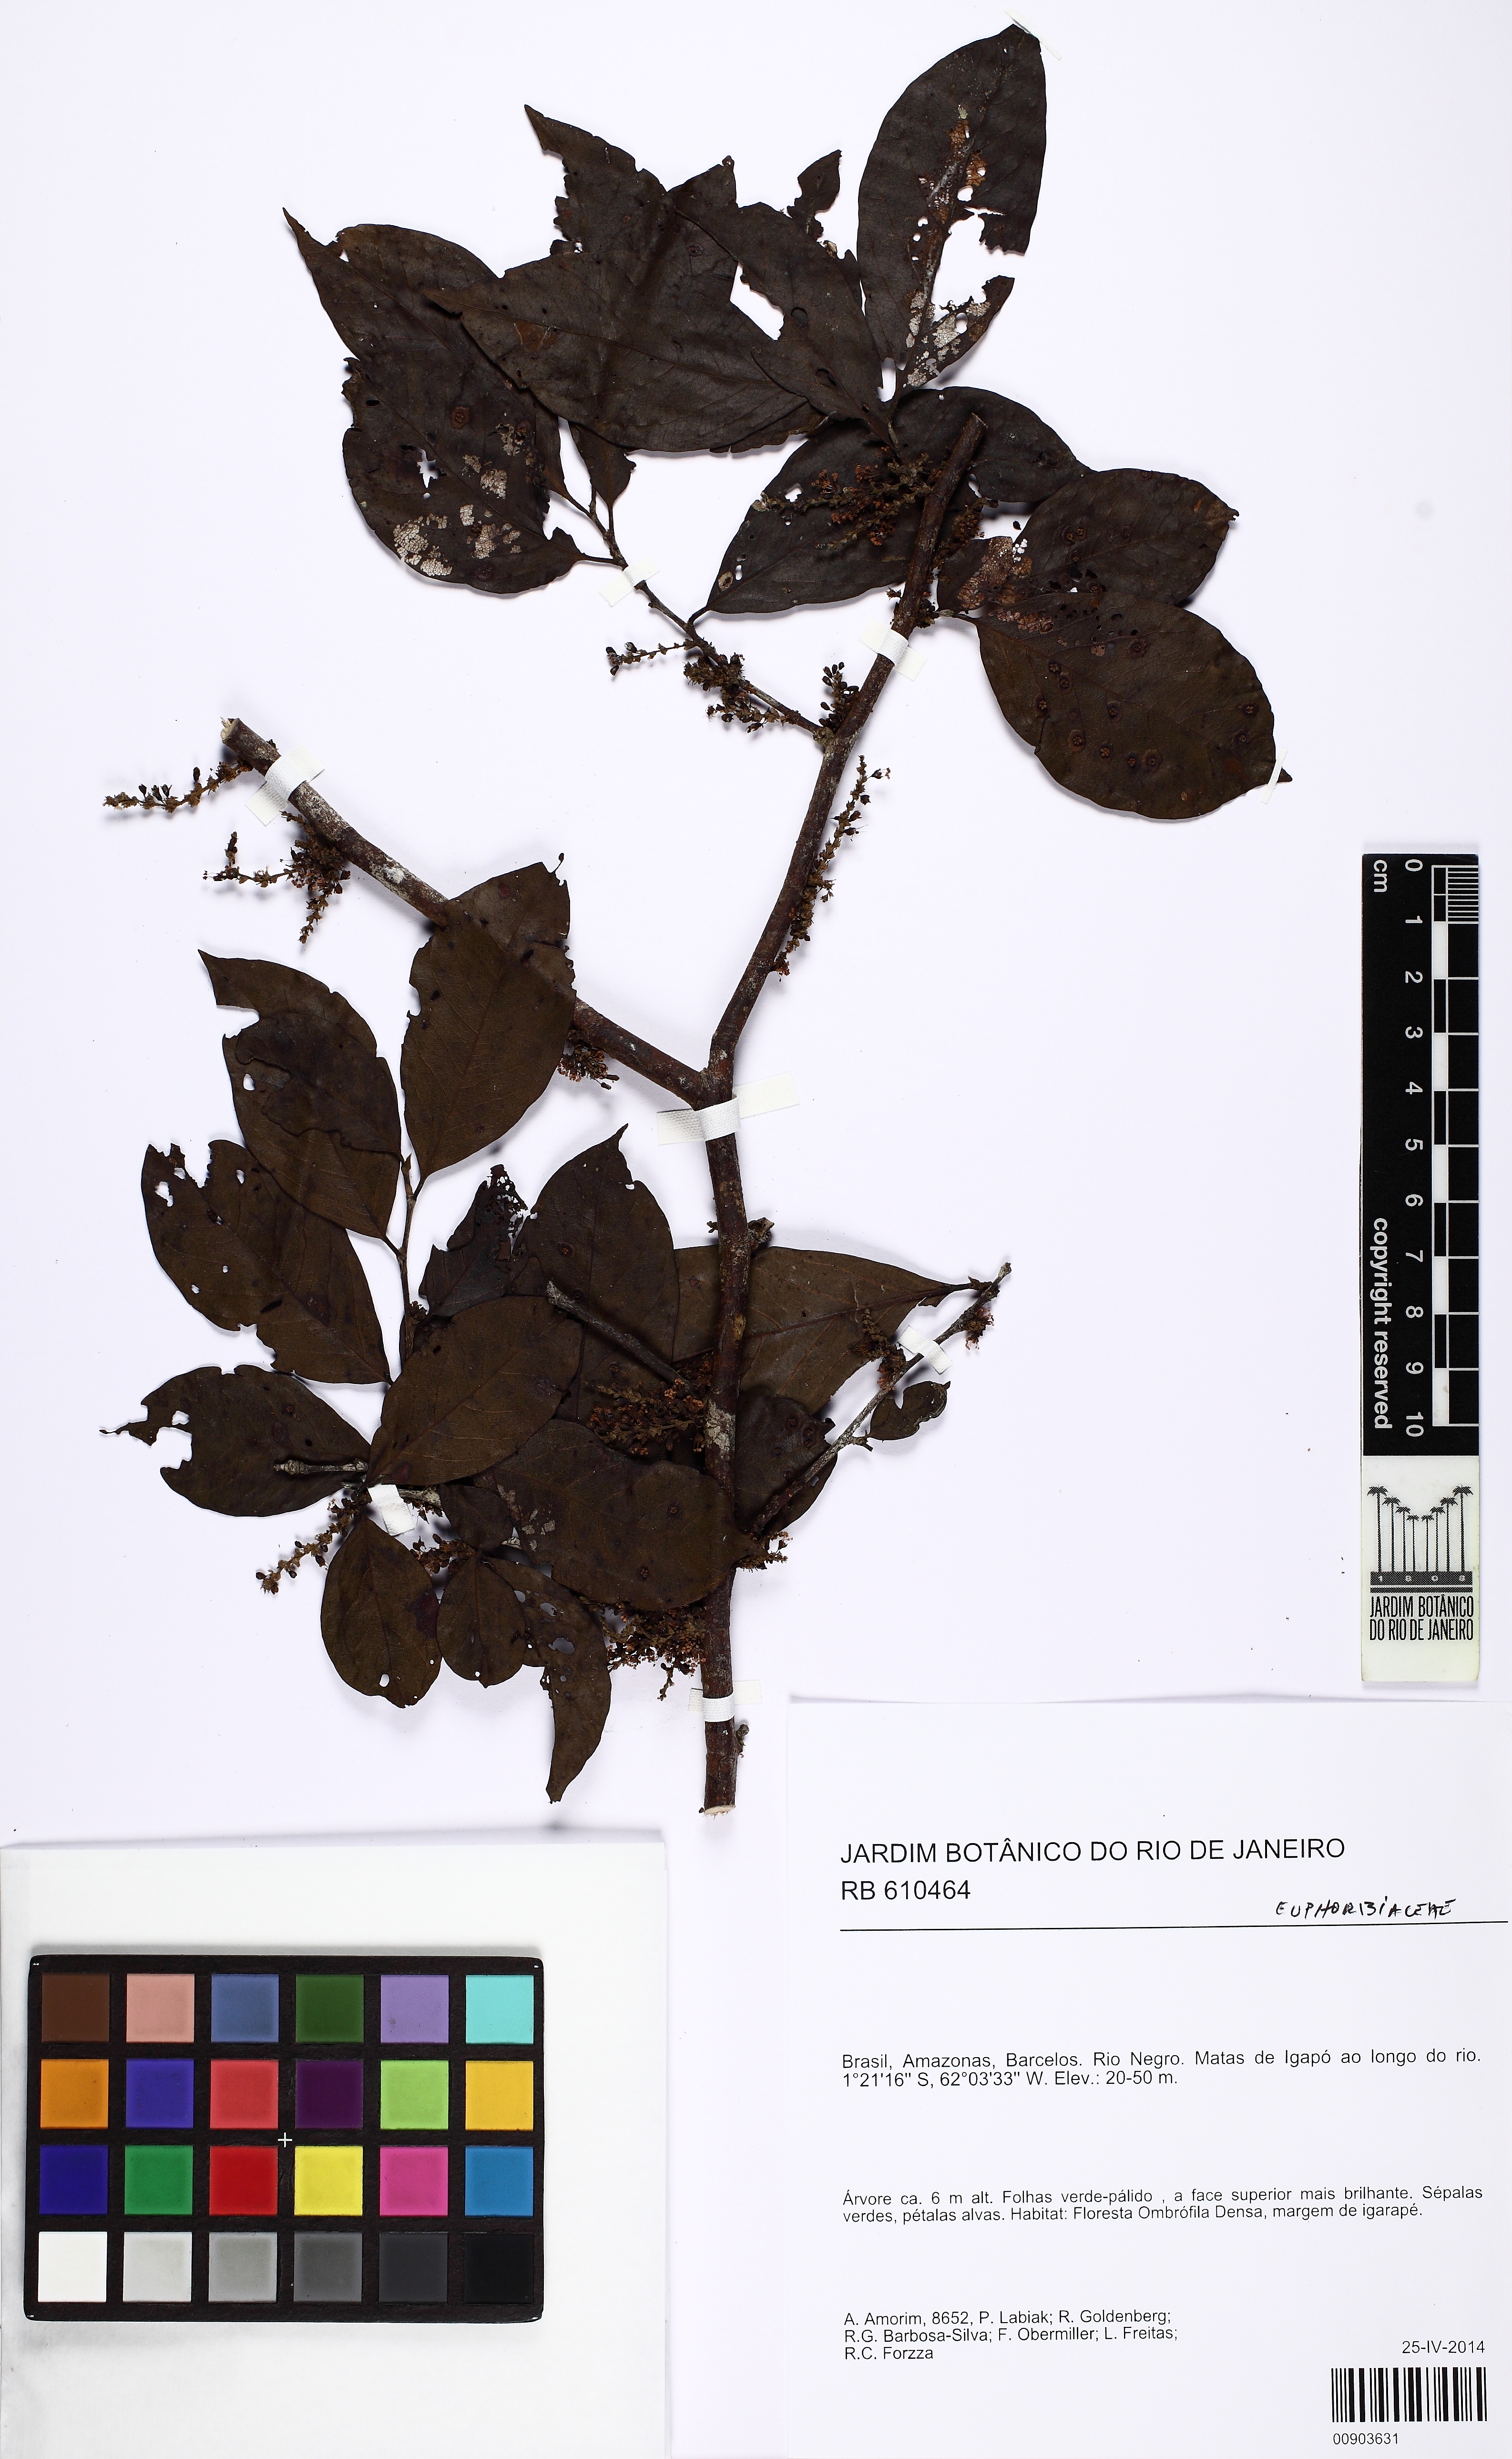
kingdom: Plantae
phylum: Tracheophyta
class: Magnoliopsida
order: Caryophyllales
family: Polygonaceae
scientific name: Polygonaceae
